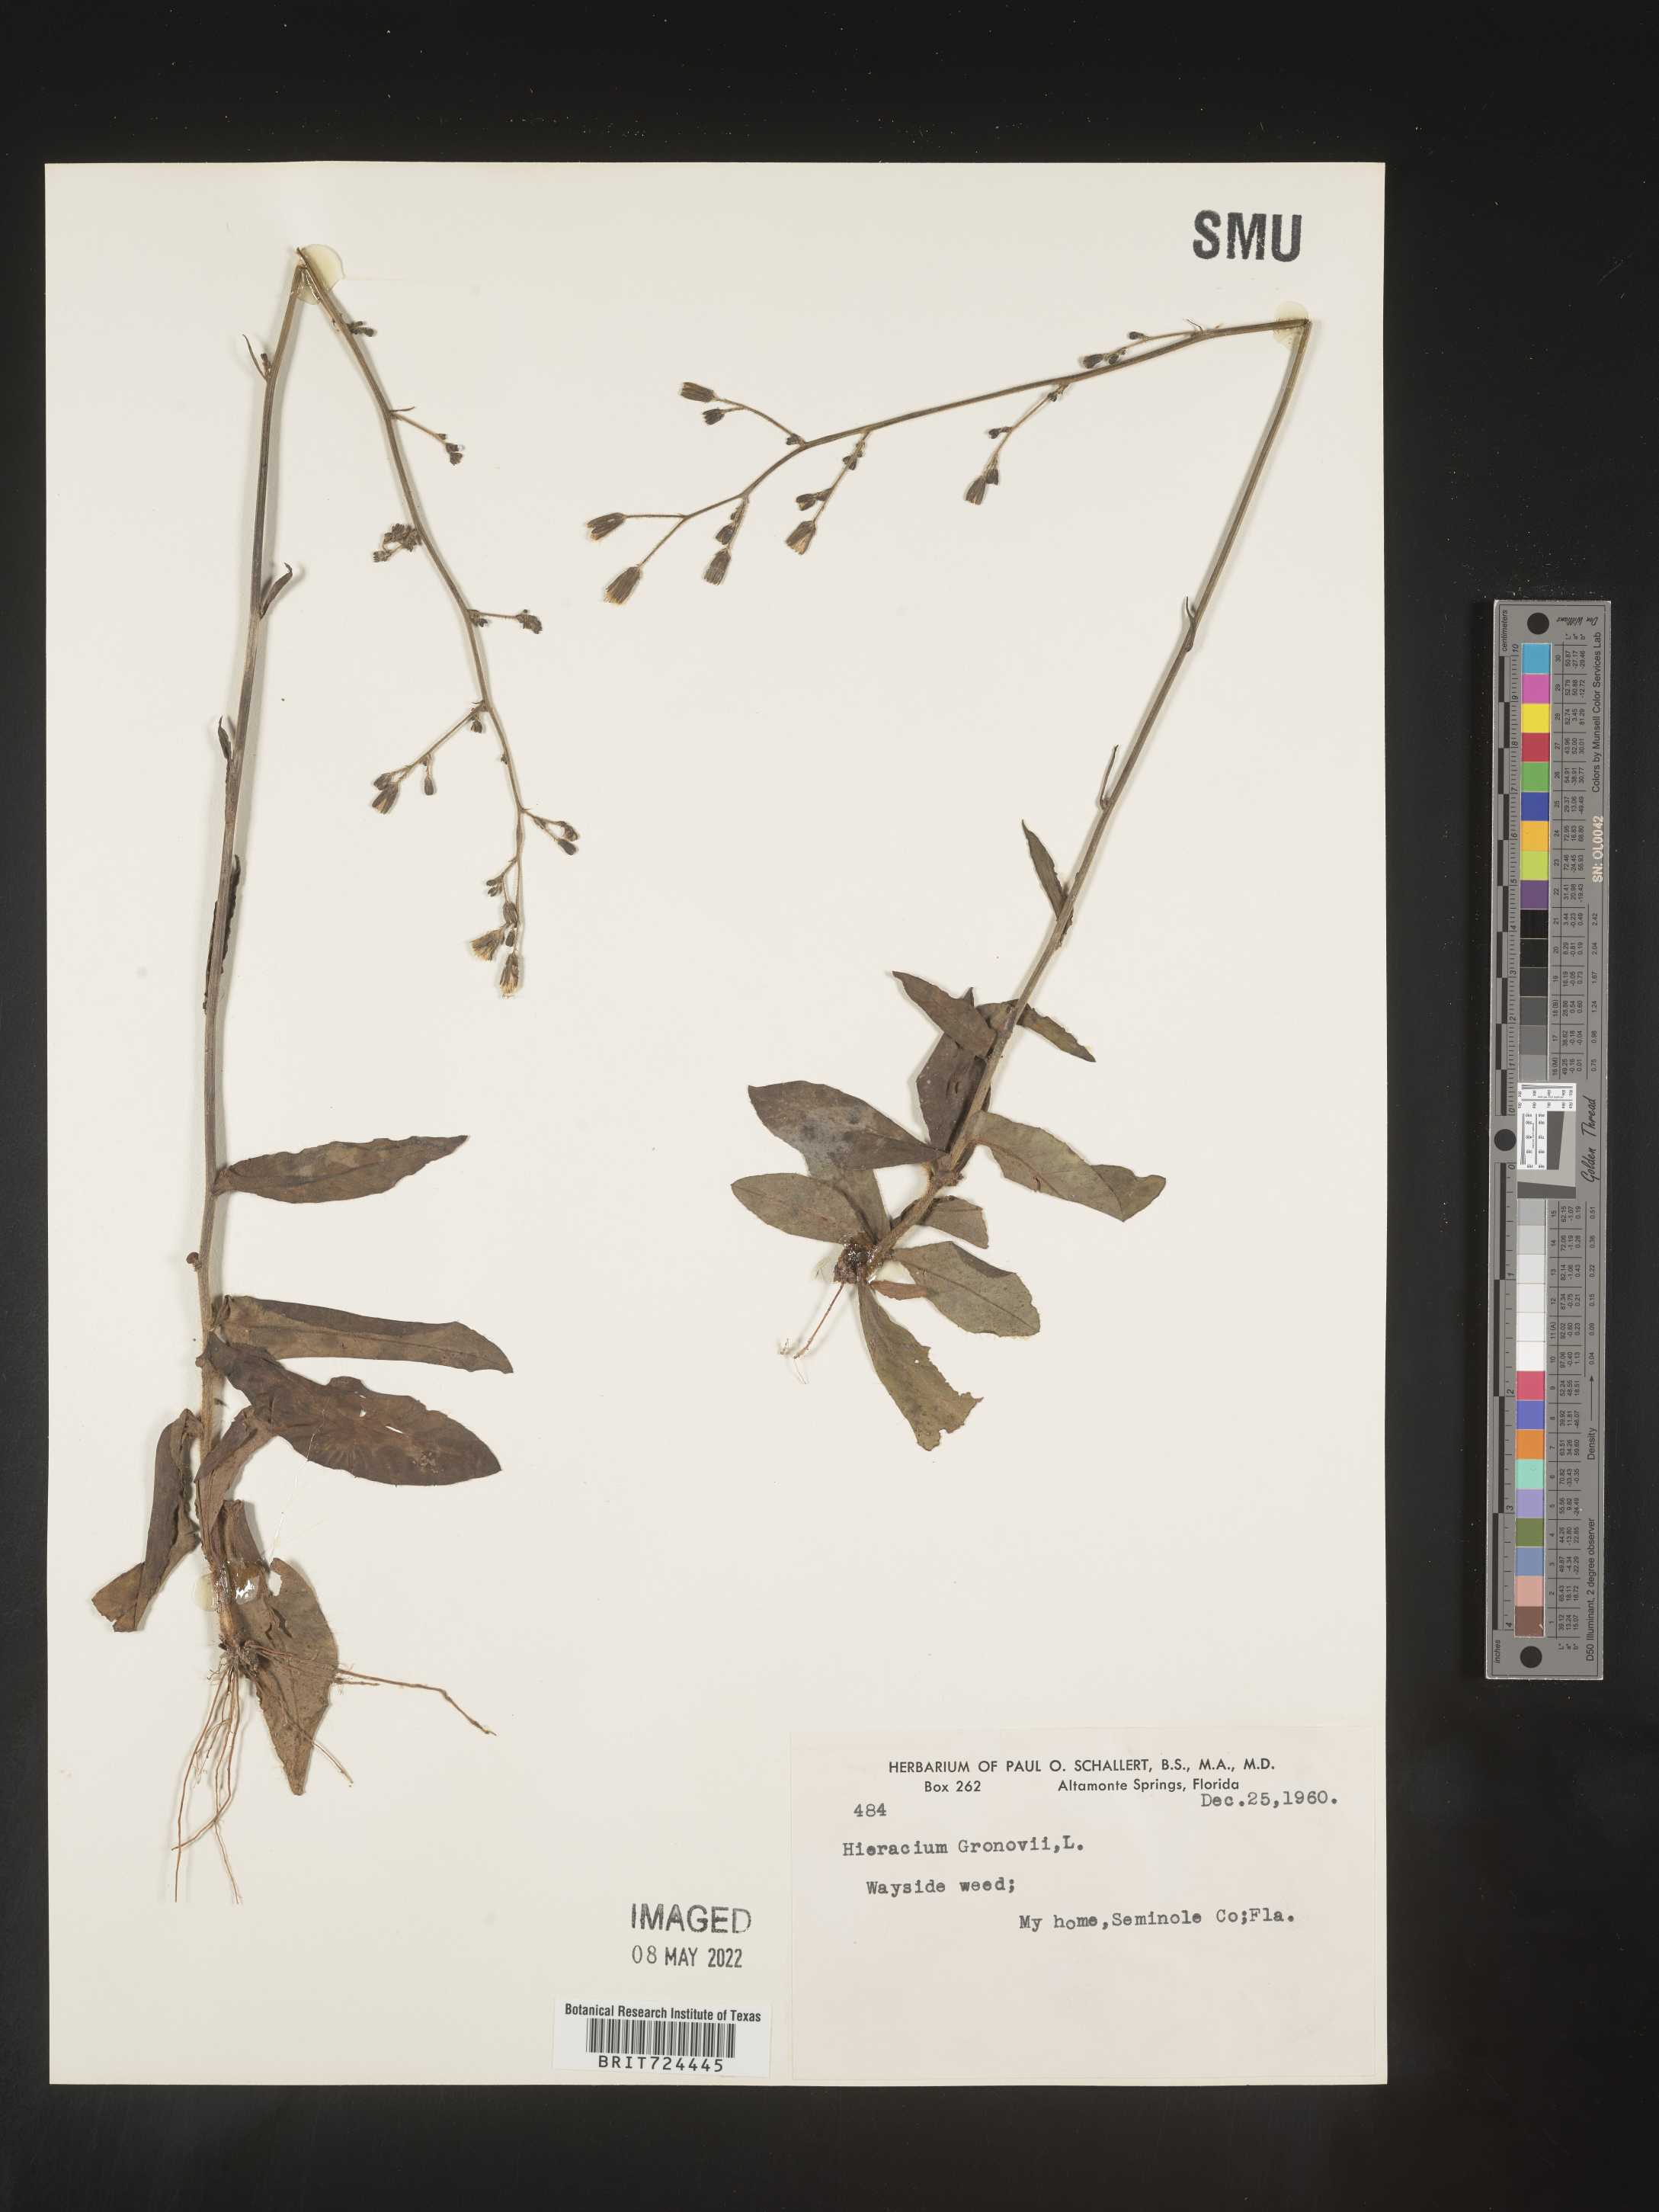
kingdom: Plantae
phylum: Tracheophyta
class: Magnoliopsida
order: Asterales
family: Asteraceae
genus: Hieracium
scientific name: Hieracium gronovii
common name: Beaked hawkweed
